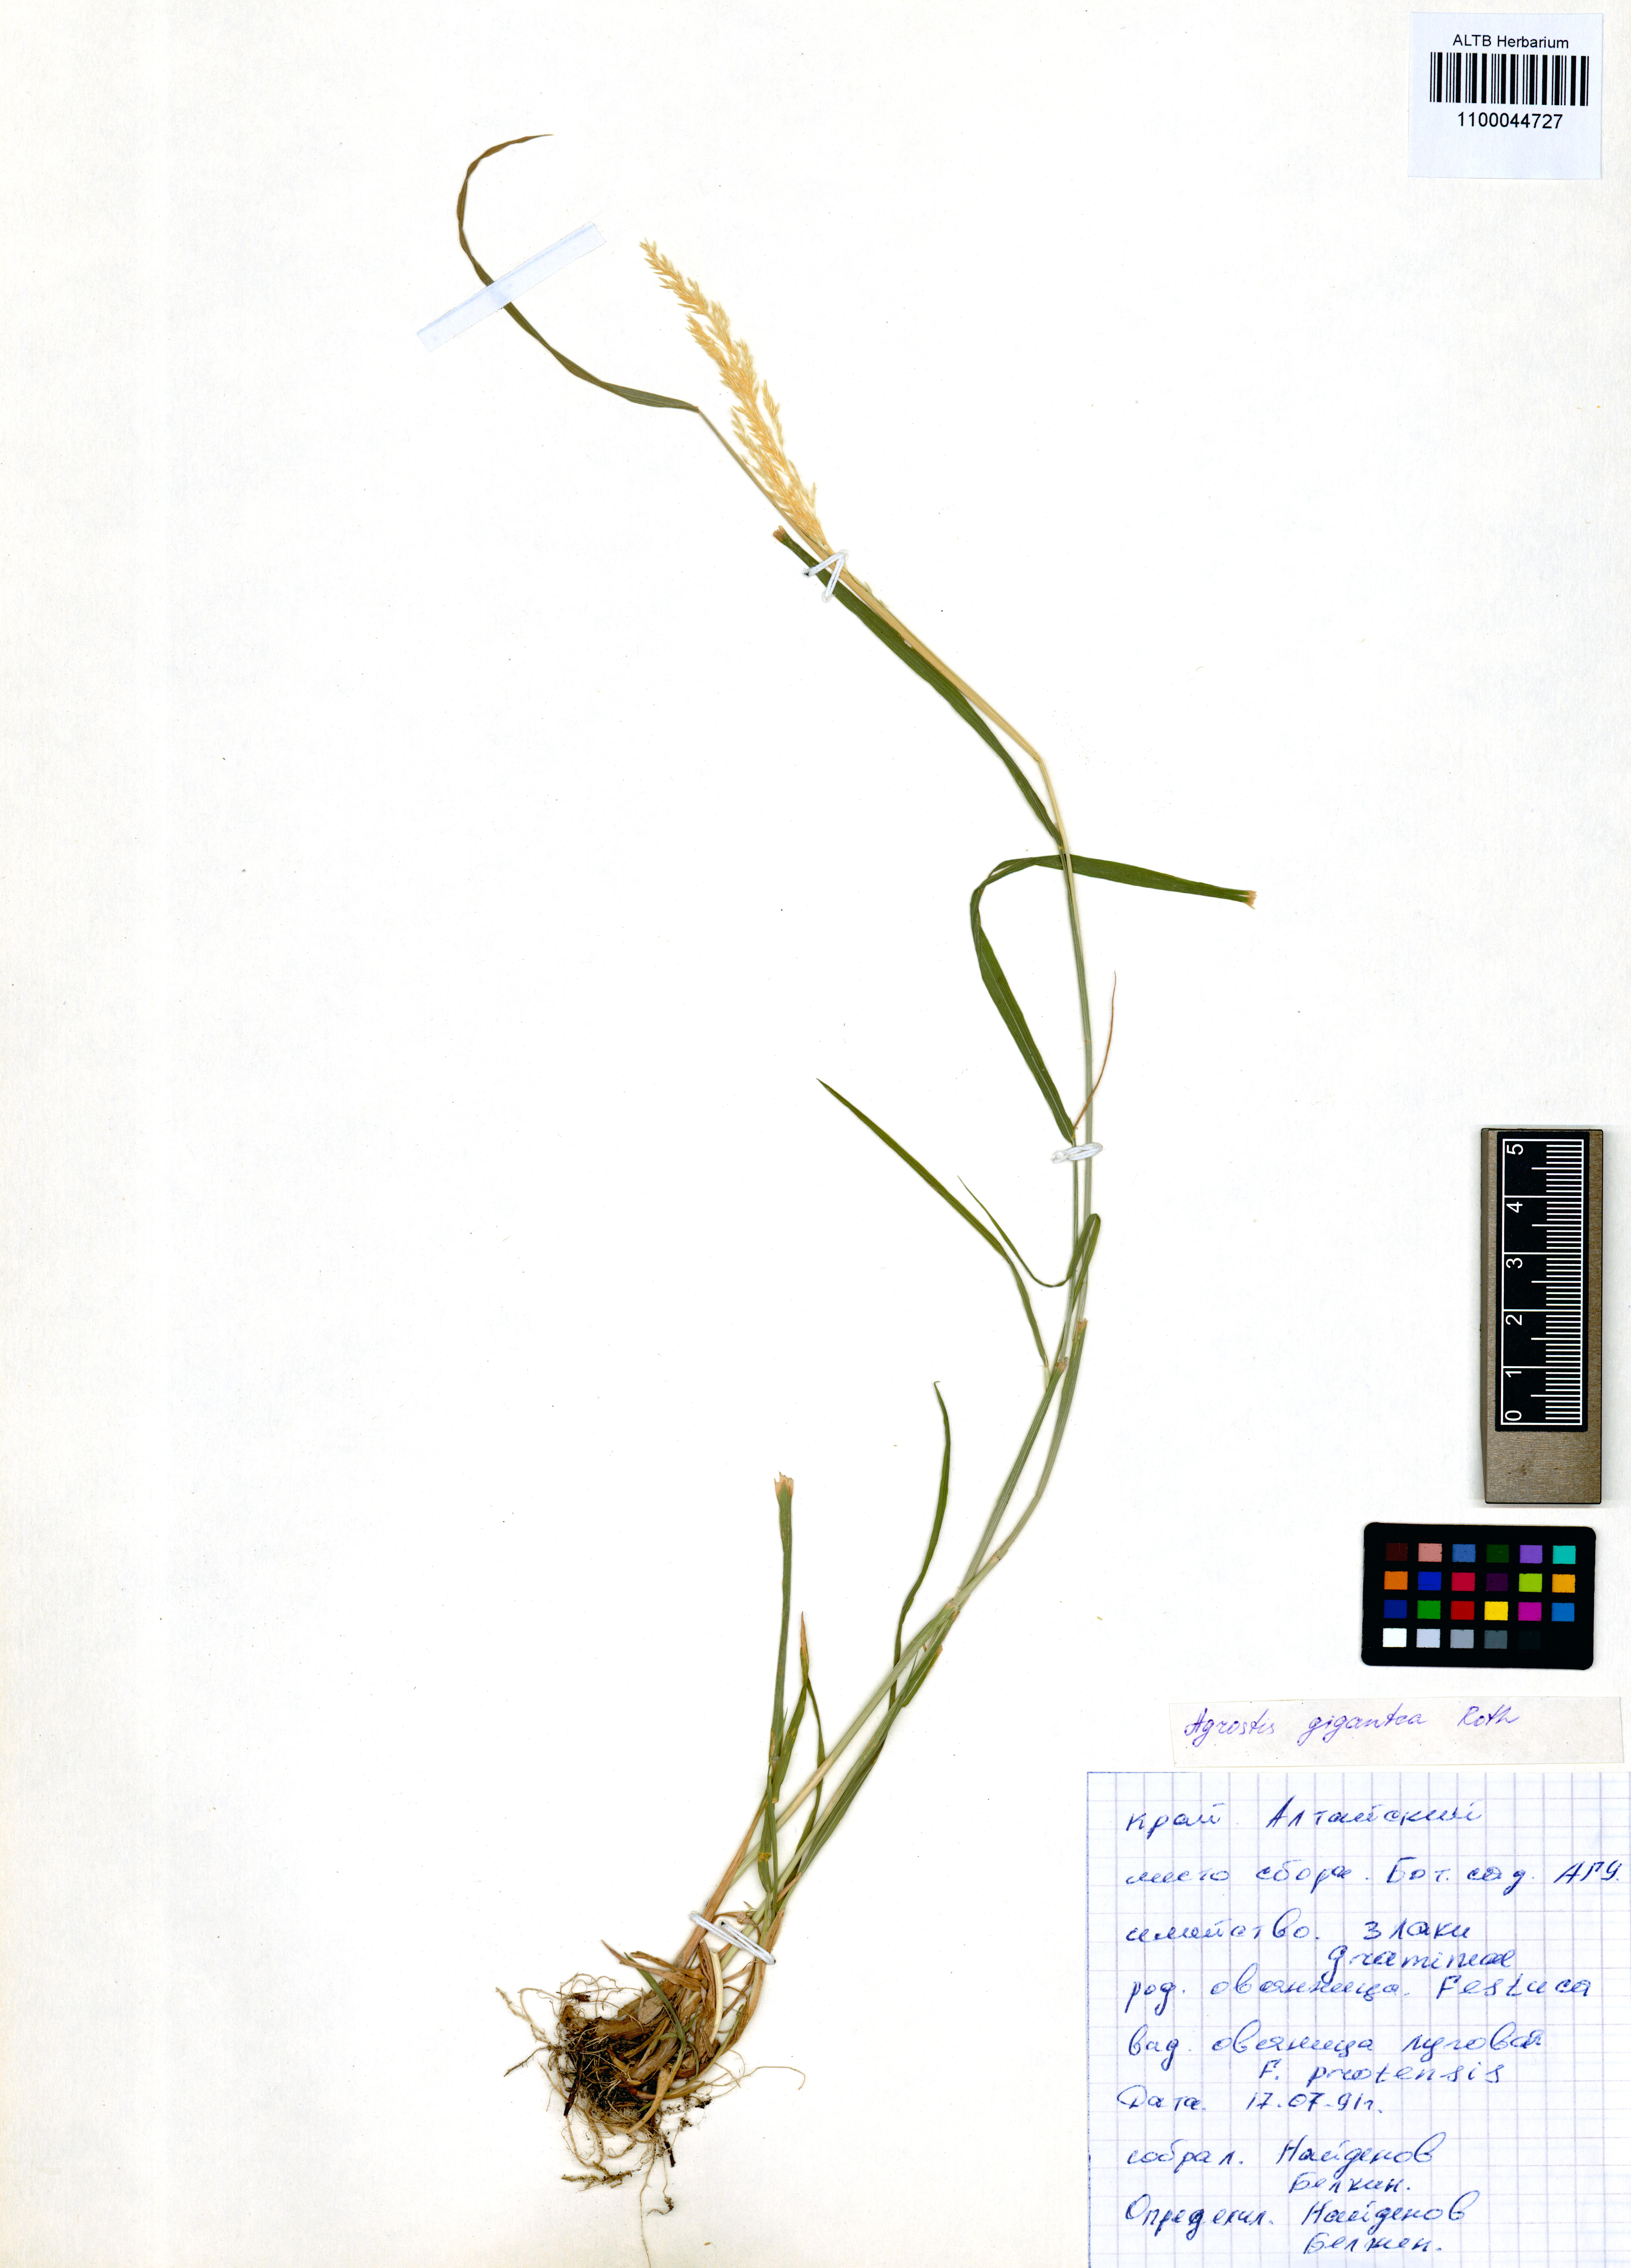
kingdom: Plantae
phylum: Tracheophyta
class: Liliopsida
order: Poales
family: Poaceae
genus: Agrostis
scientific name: Agrostis gigantea
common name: Black bent
